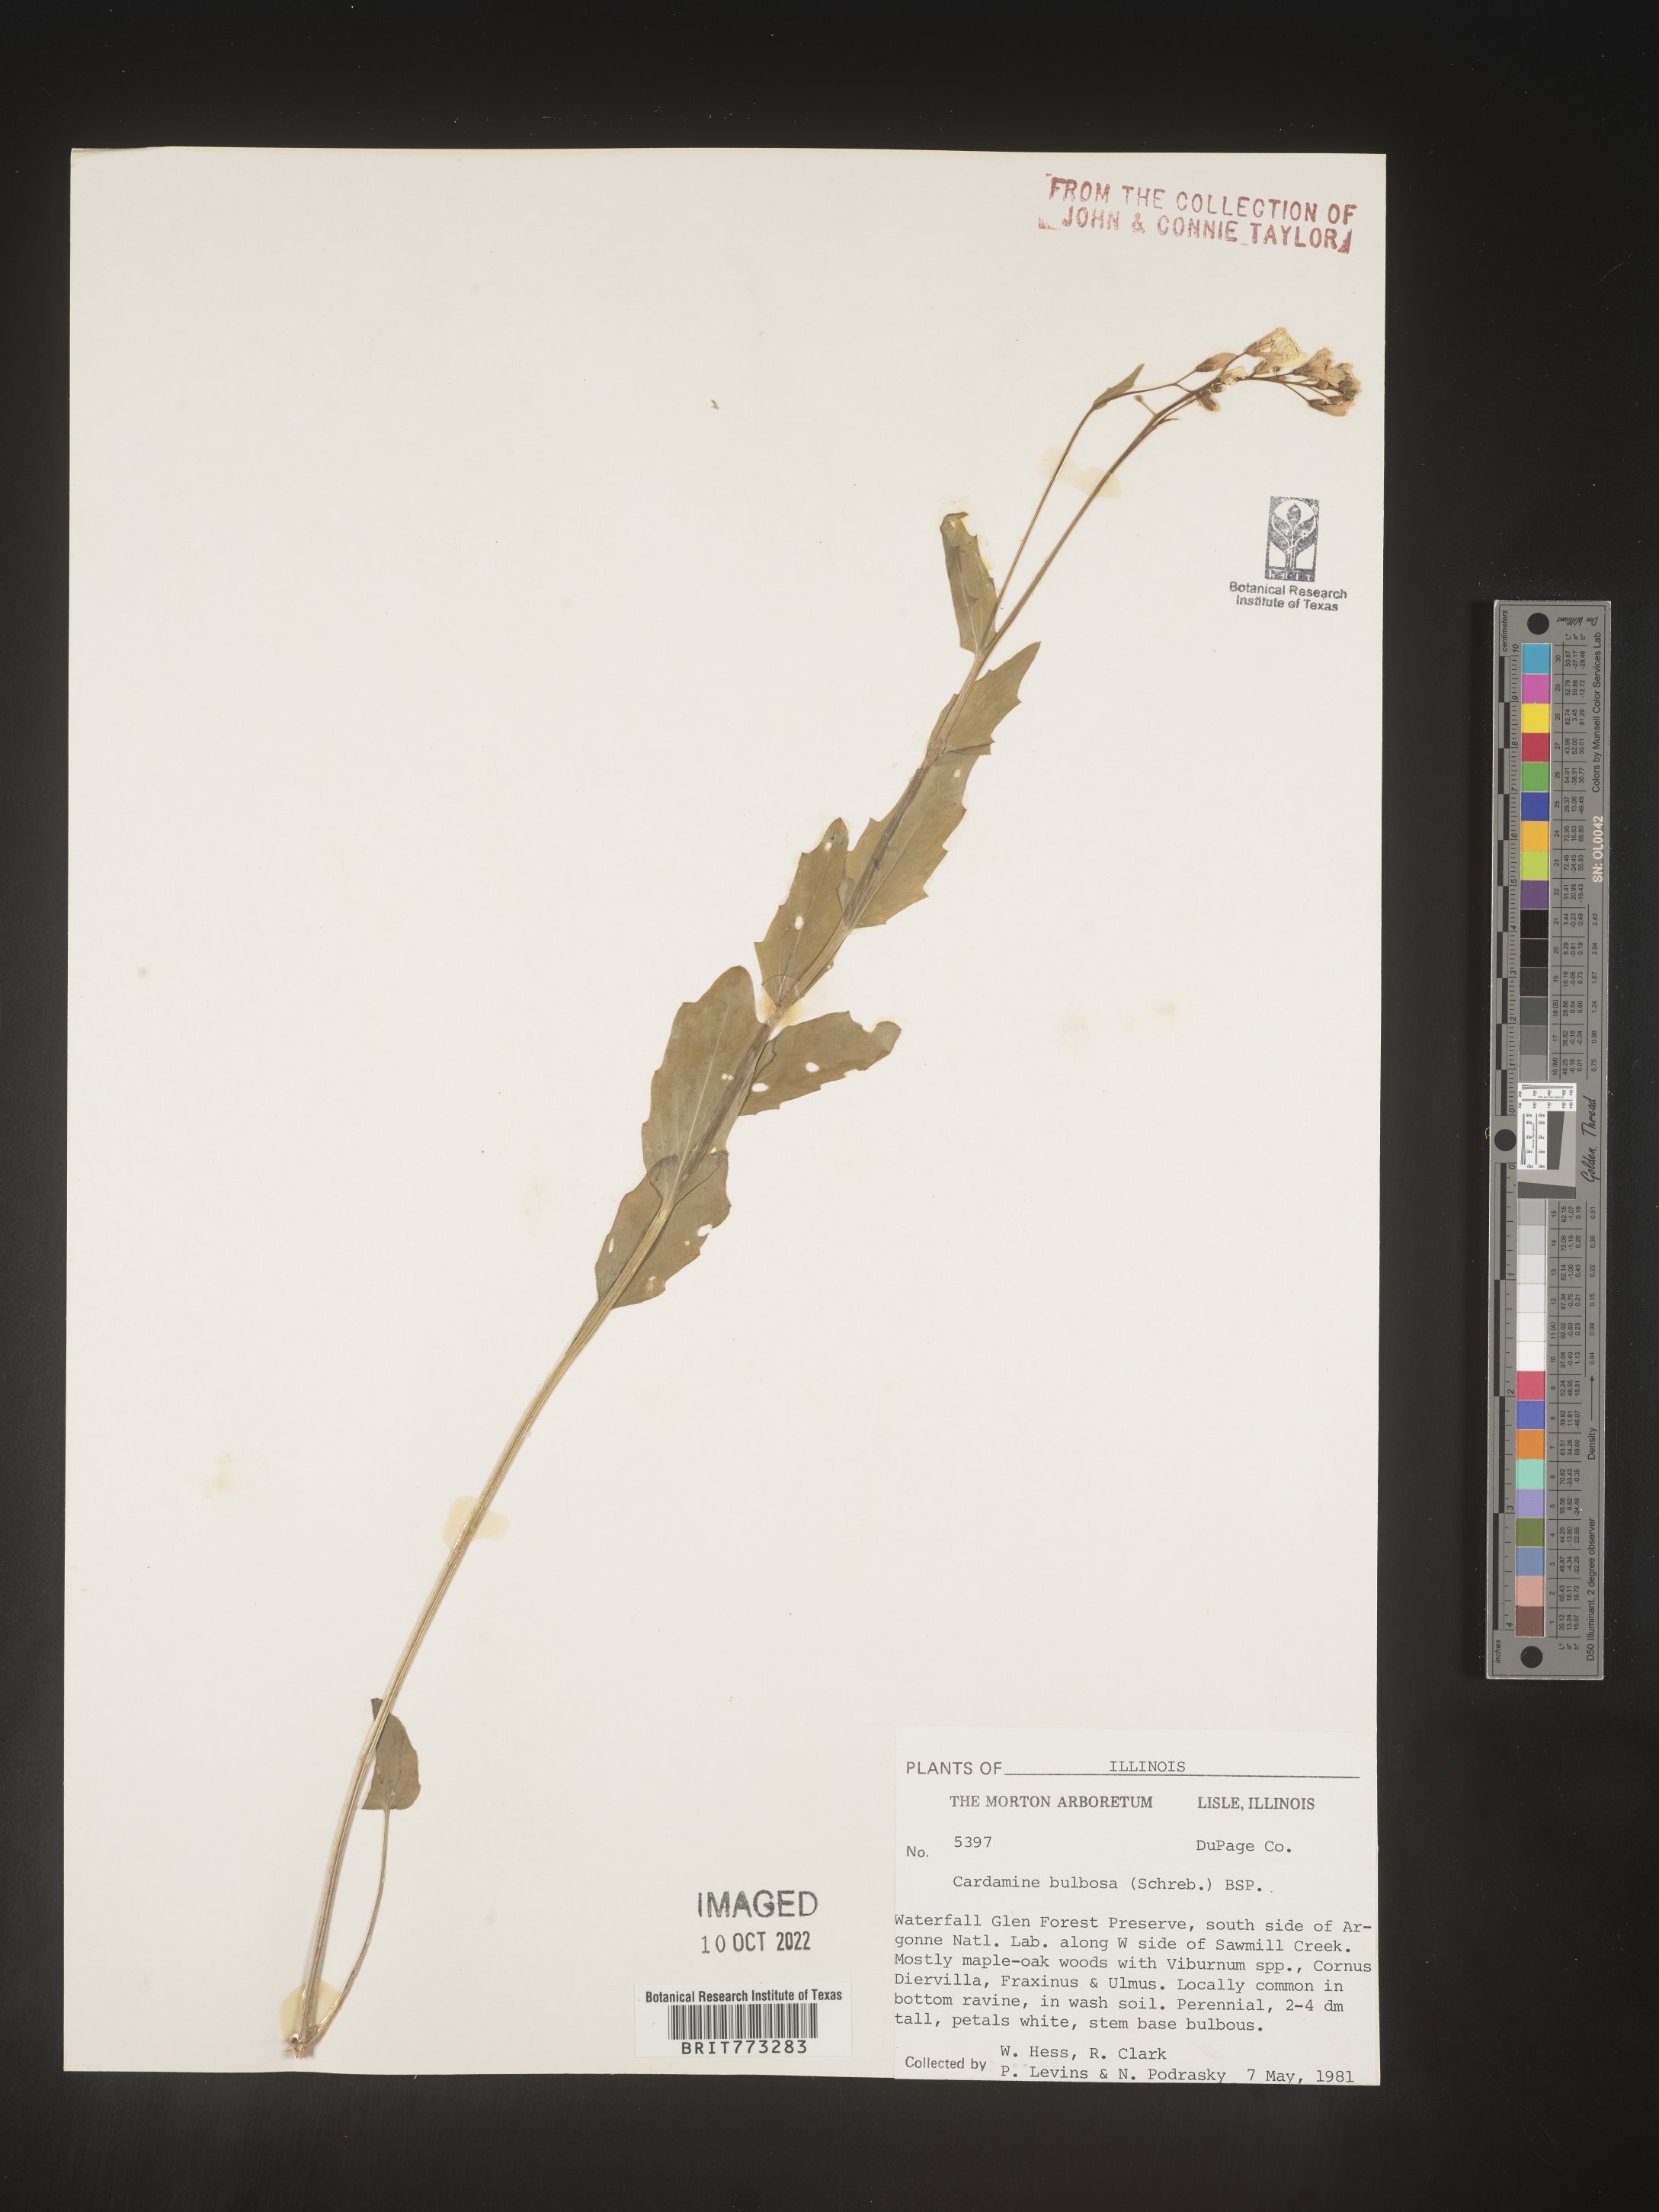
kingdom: Plantae
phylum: Tracheophyta
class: Magnoliopsida
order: Brassicales
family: Brassicaceae
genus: Cardamine
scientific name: Cardamine bulbosa
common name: Spring cress
